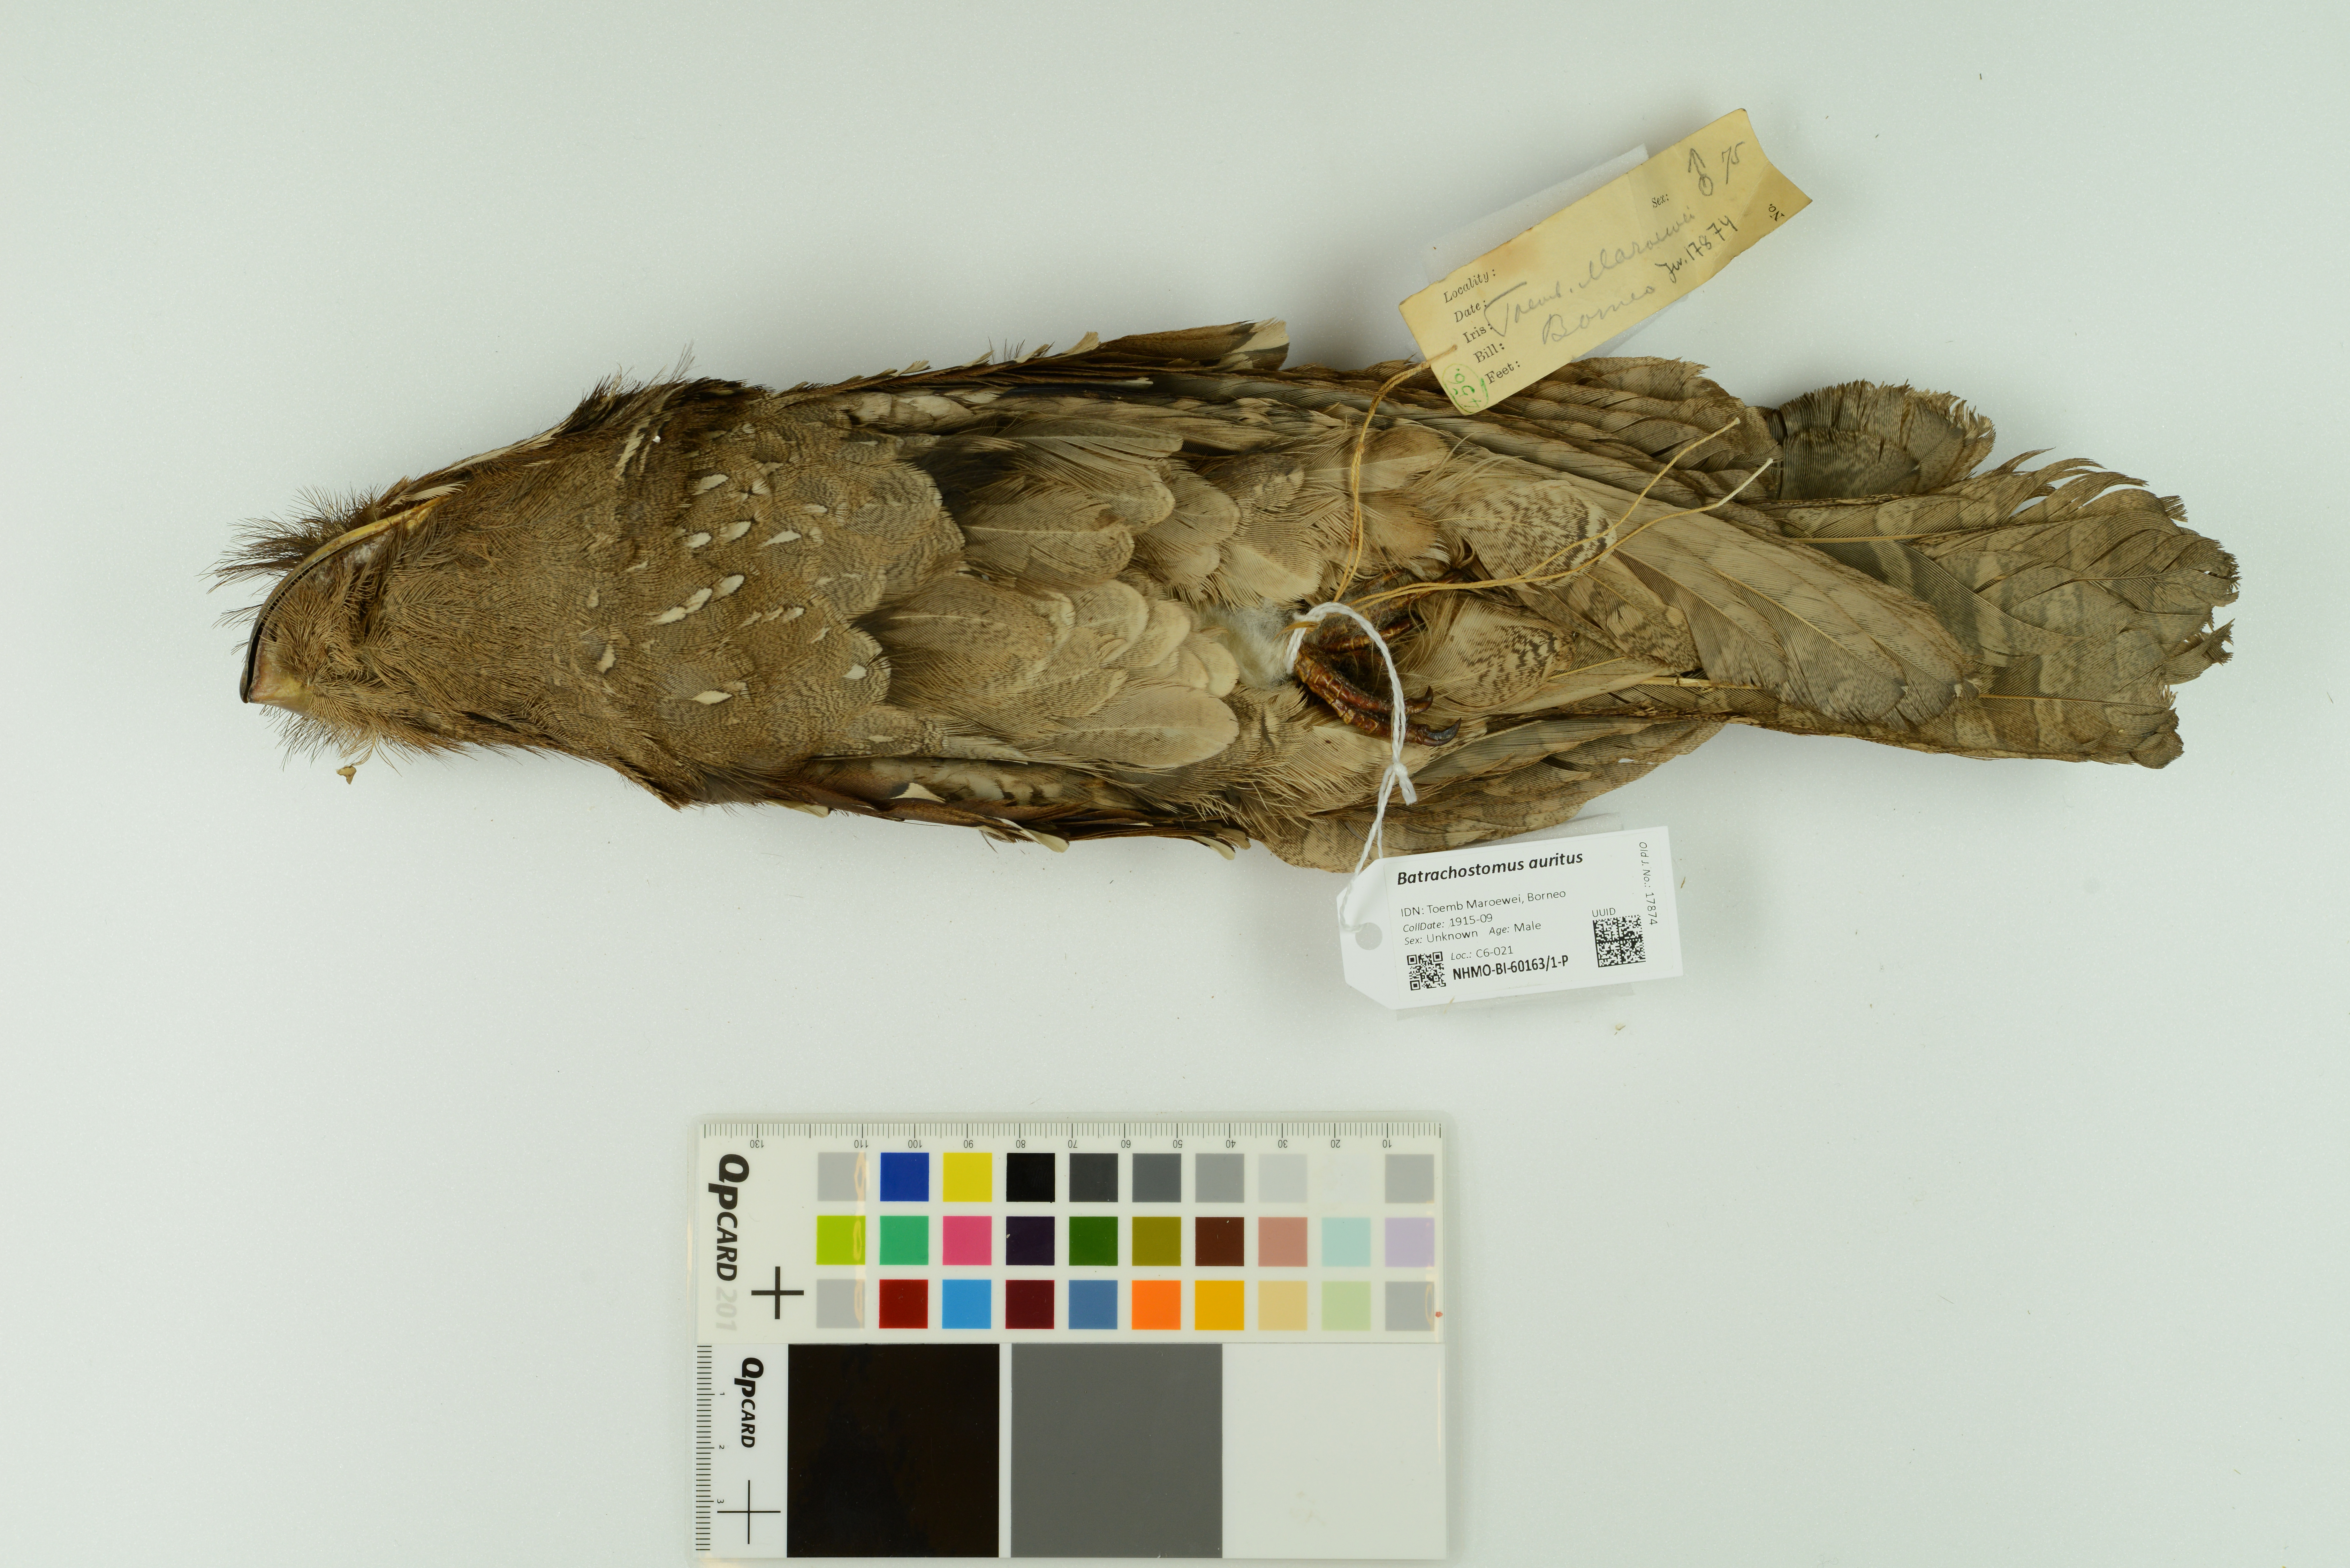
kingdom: Animalia
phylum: Chordata
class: Aves
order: Caprimulgiformes
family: Podargidae
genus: Batrachostomus
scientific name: Batrachostomus auritus
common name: Large frogmouth
